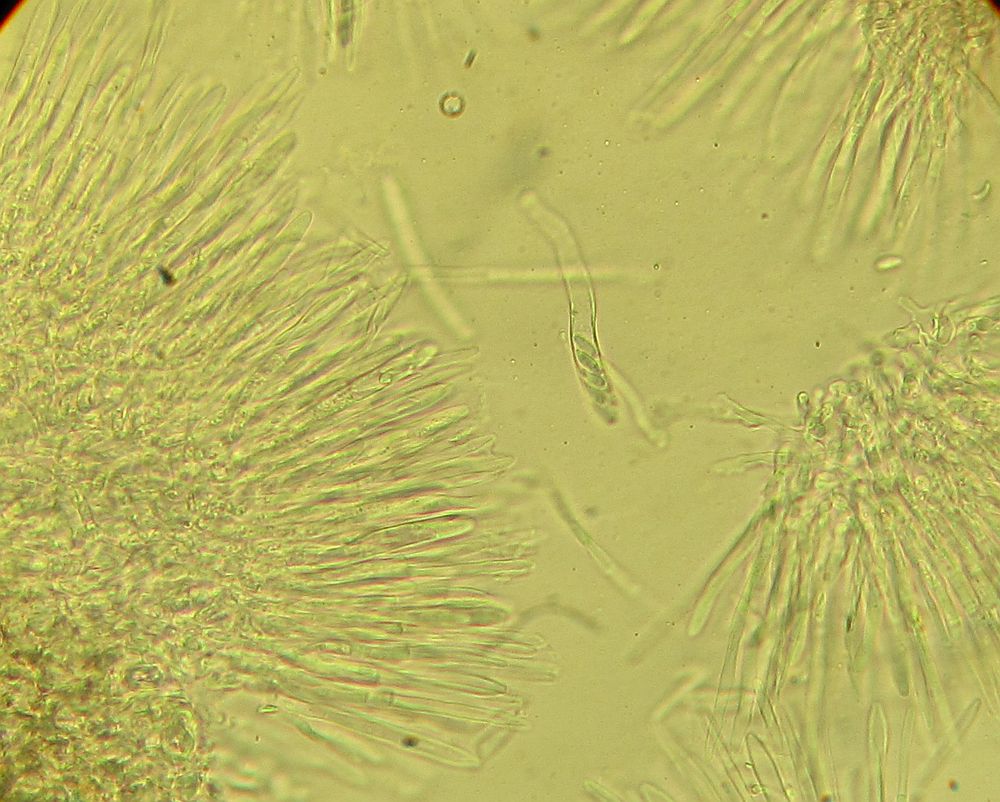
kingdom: Fungi
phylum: Ascomycota
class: Leotiomycetes
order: Helotiales
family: Mollisiaceae
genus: Mollisia
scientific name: Mollisia rosae
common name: rose-gråskive
